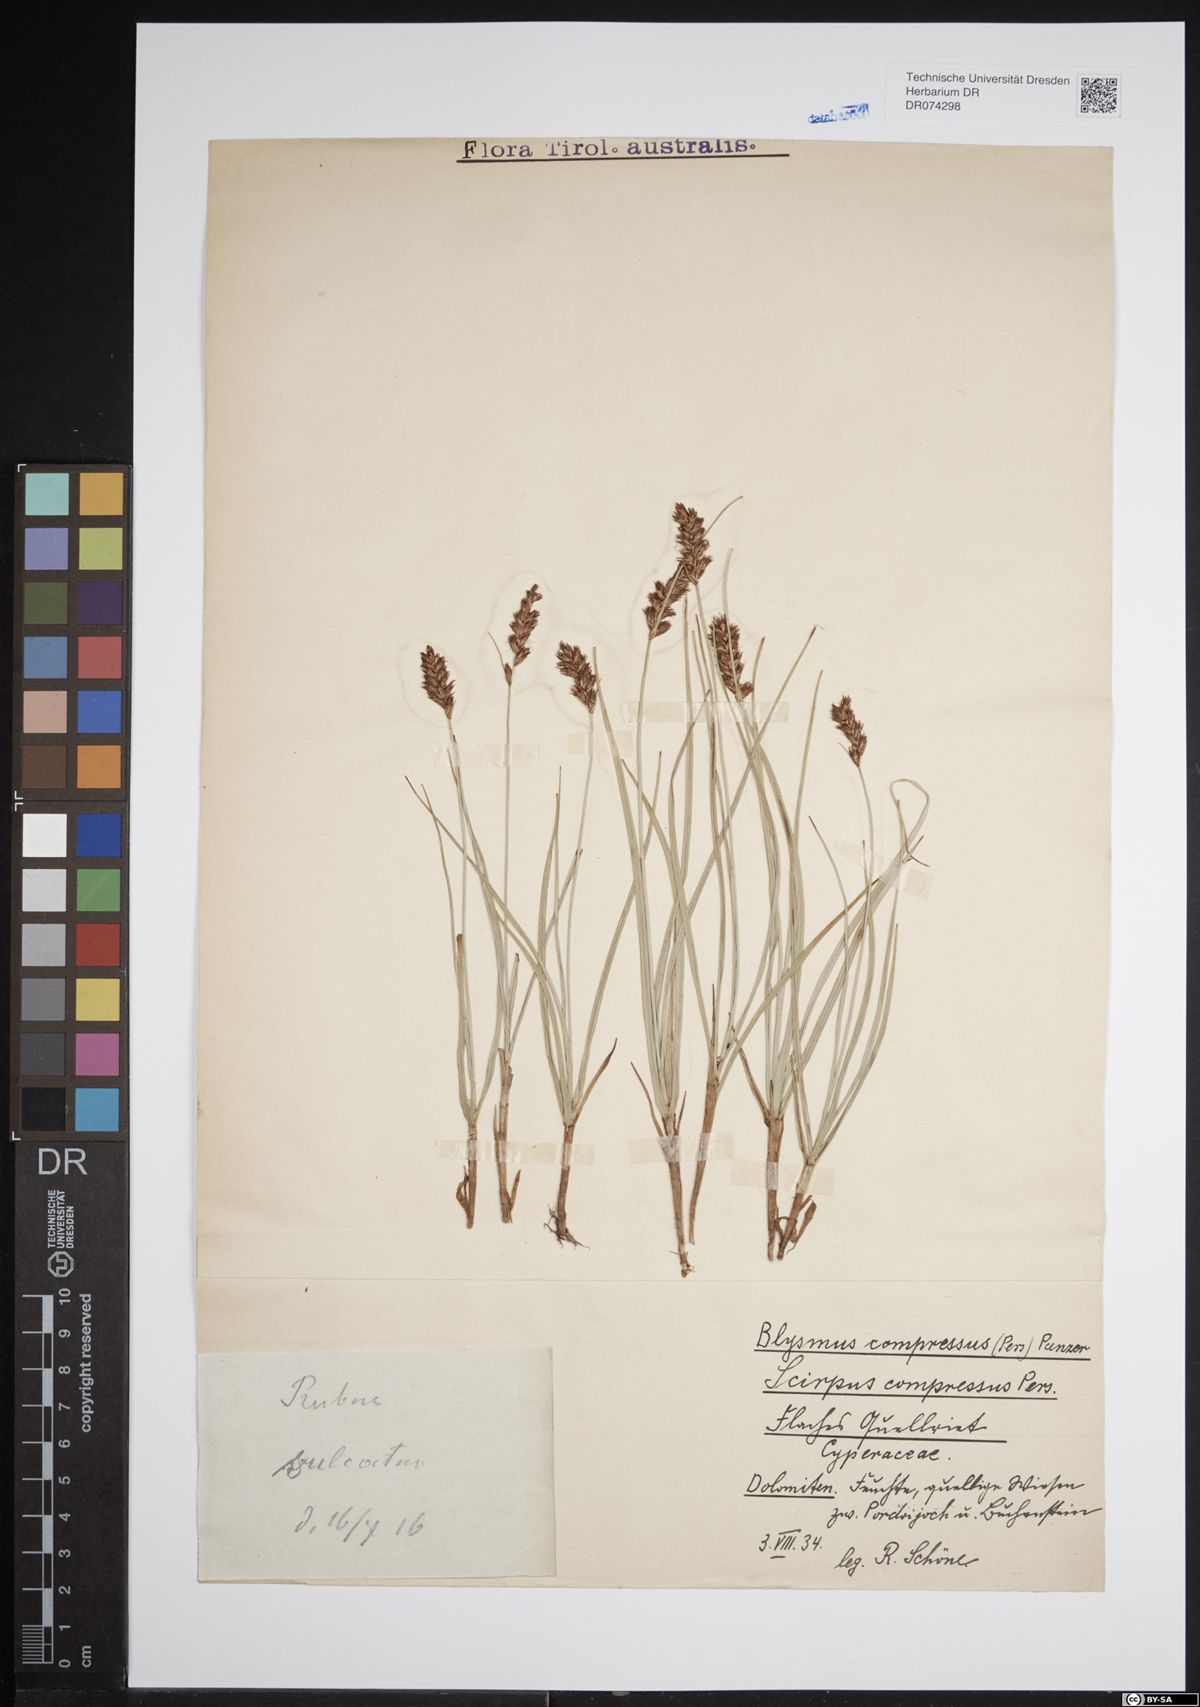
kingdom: Plantae
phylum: Tracheophyta
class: Liliopsida
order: Poales
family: Cyperaceae
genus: Blysmus
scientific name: Blysmus compressus
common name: Flat-sedge
